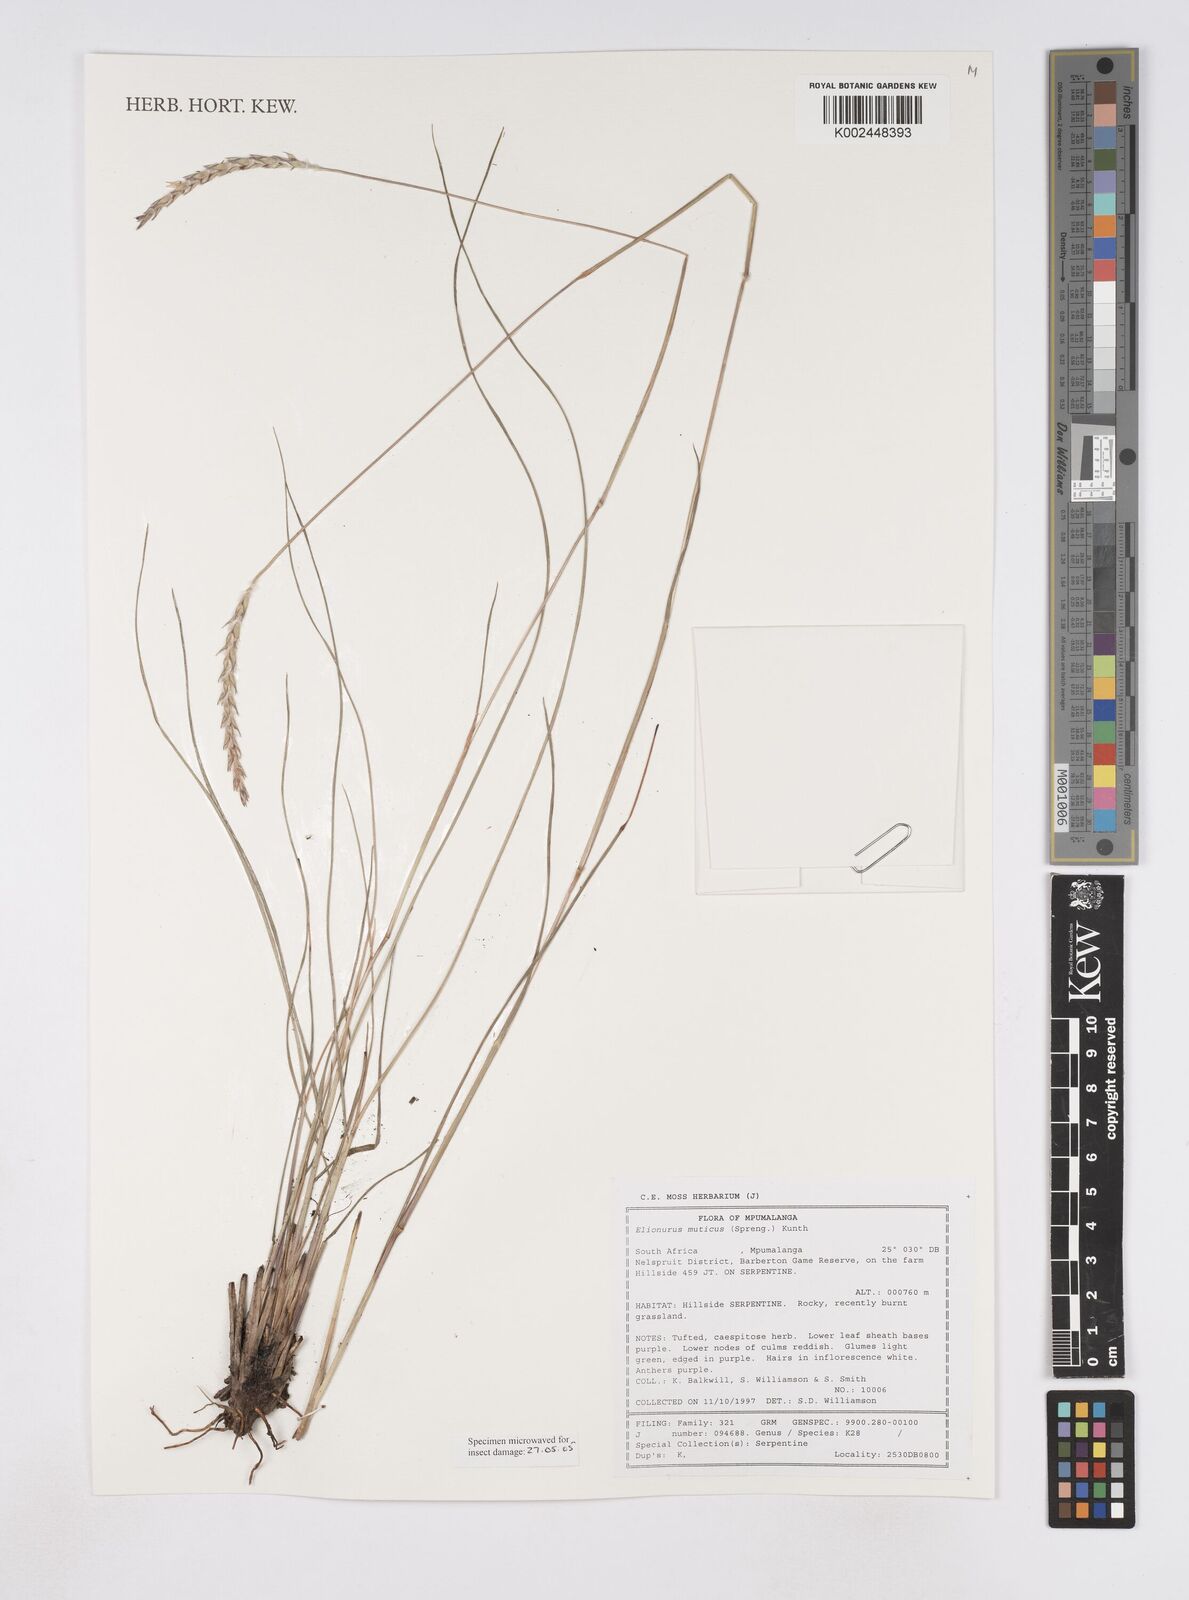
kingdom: Plantae
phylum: Tracheophyta
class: Liliopsida
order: Poales
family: Poaceae
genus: Elionurus
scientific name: Elionurus muticus
